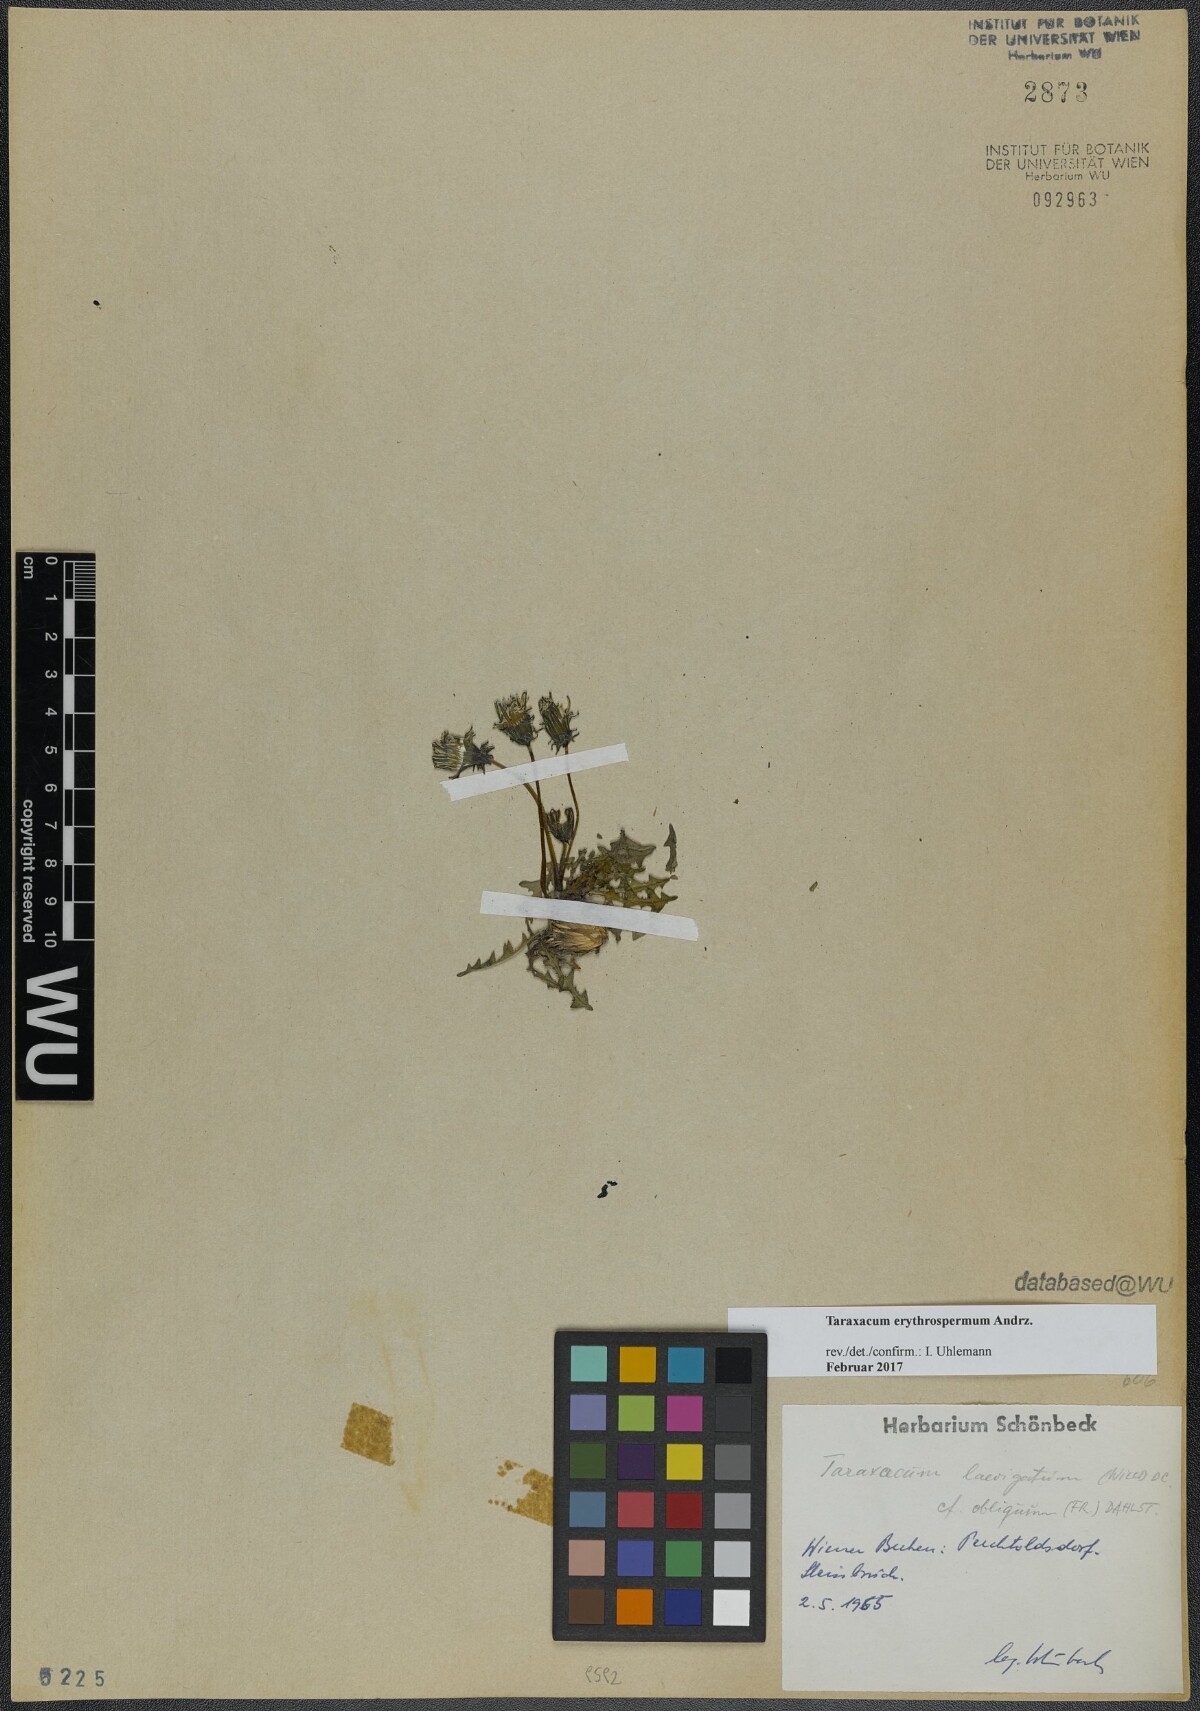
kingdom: Plantae
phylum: Tracheophyta
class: Magnoliopsida
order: Asterales
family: Asteraceae
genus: Taraxacum
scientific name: Taraxacum erythrospermum
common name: Rock dandelion
